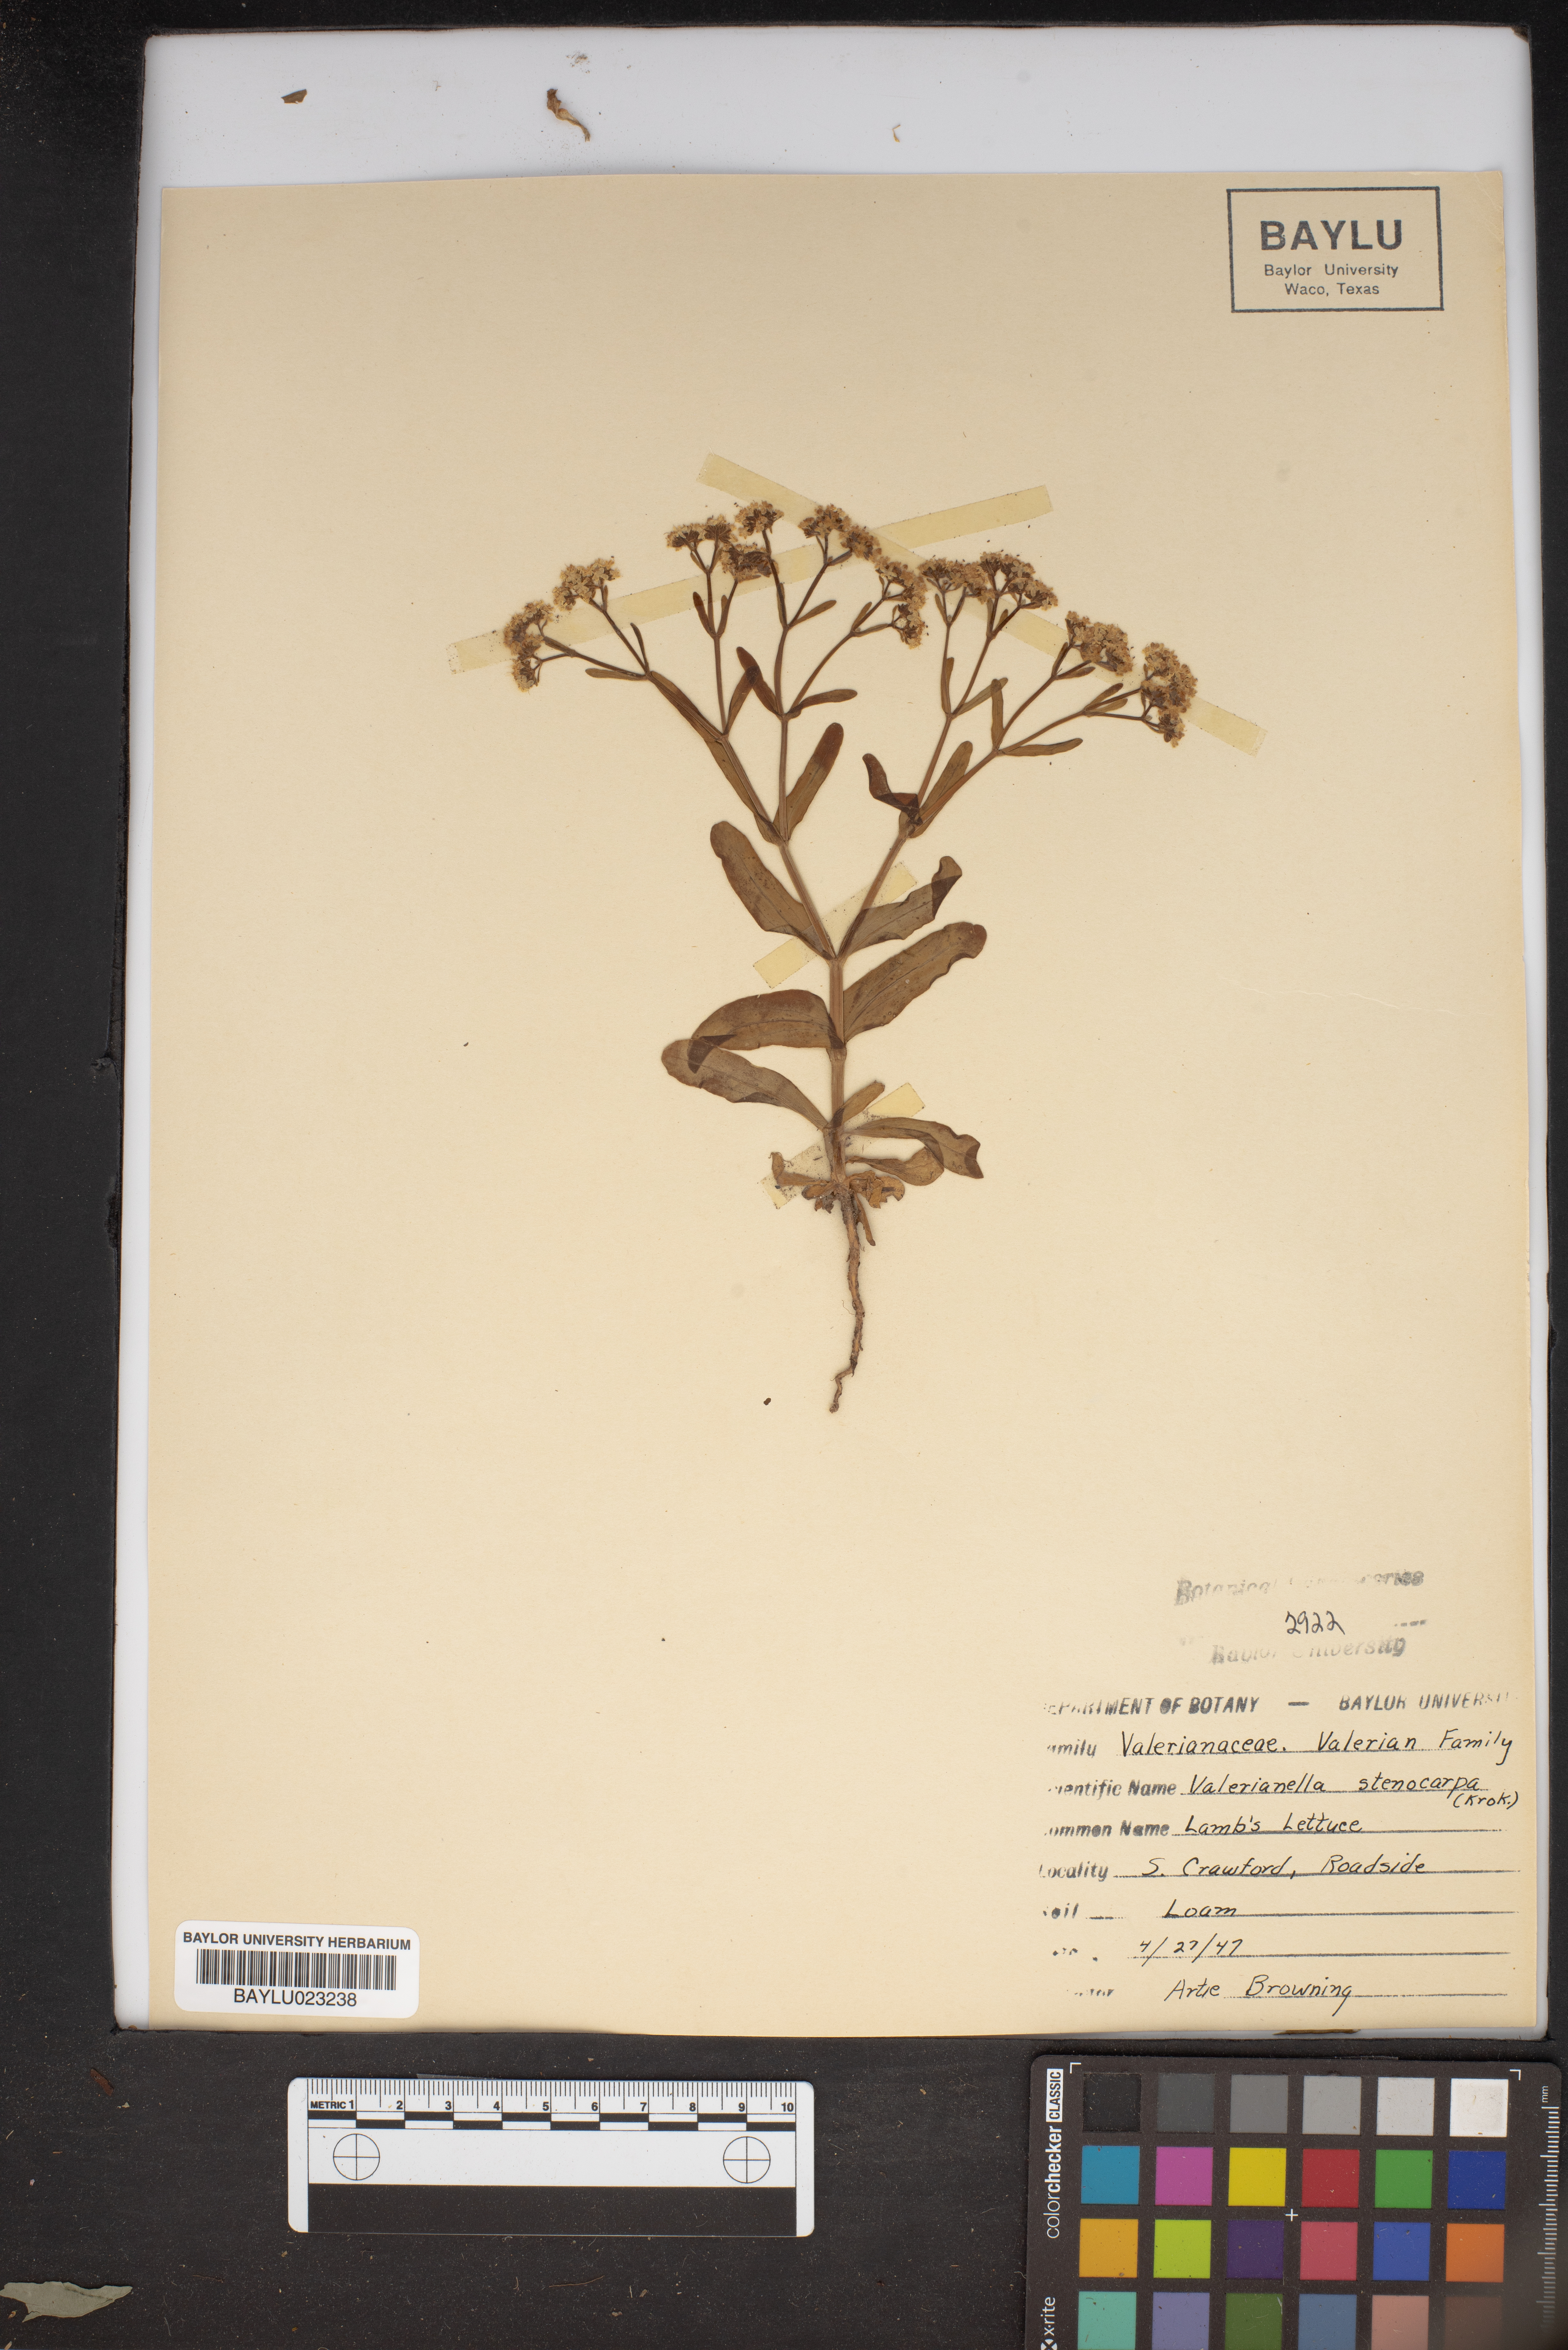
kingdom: Plantae
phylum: Tracheophyta
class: Magnoliopsida
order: Dipsacales
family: Caprifoliaceae
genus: Valerianella
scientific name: Valerianella stenocarpa
